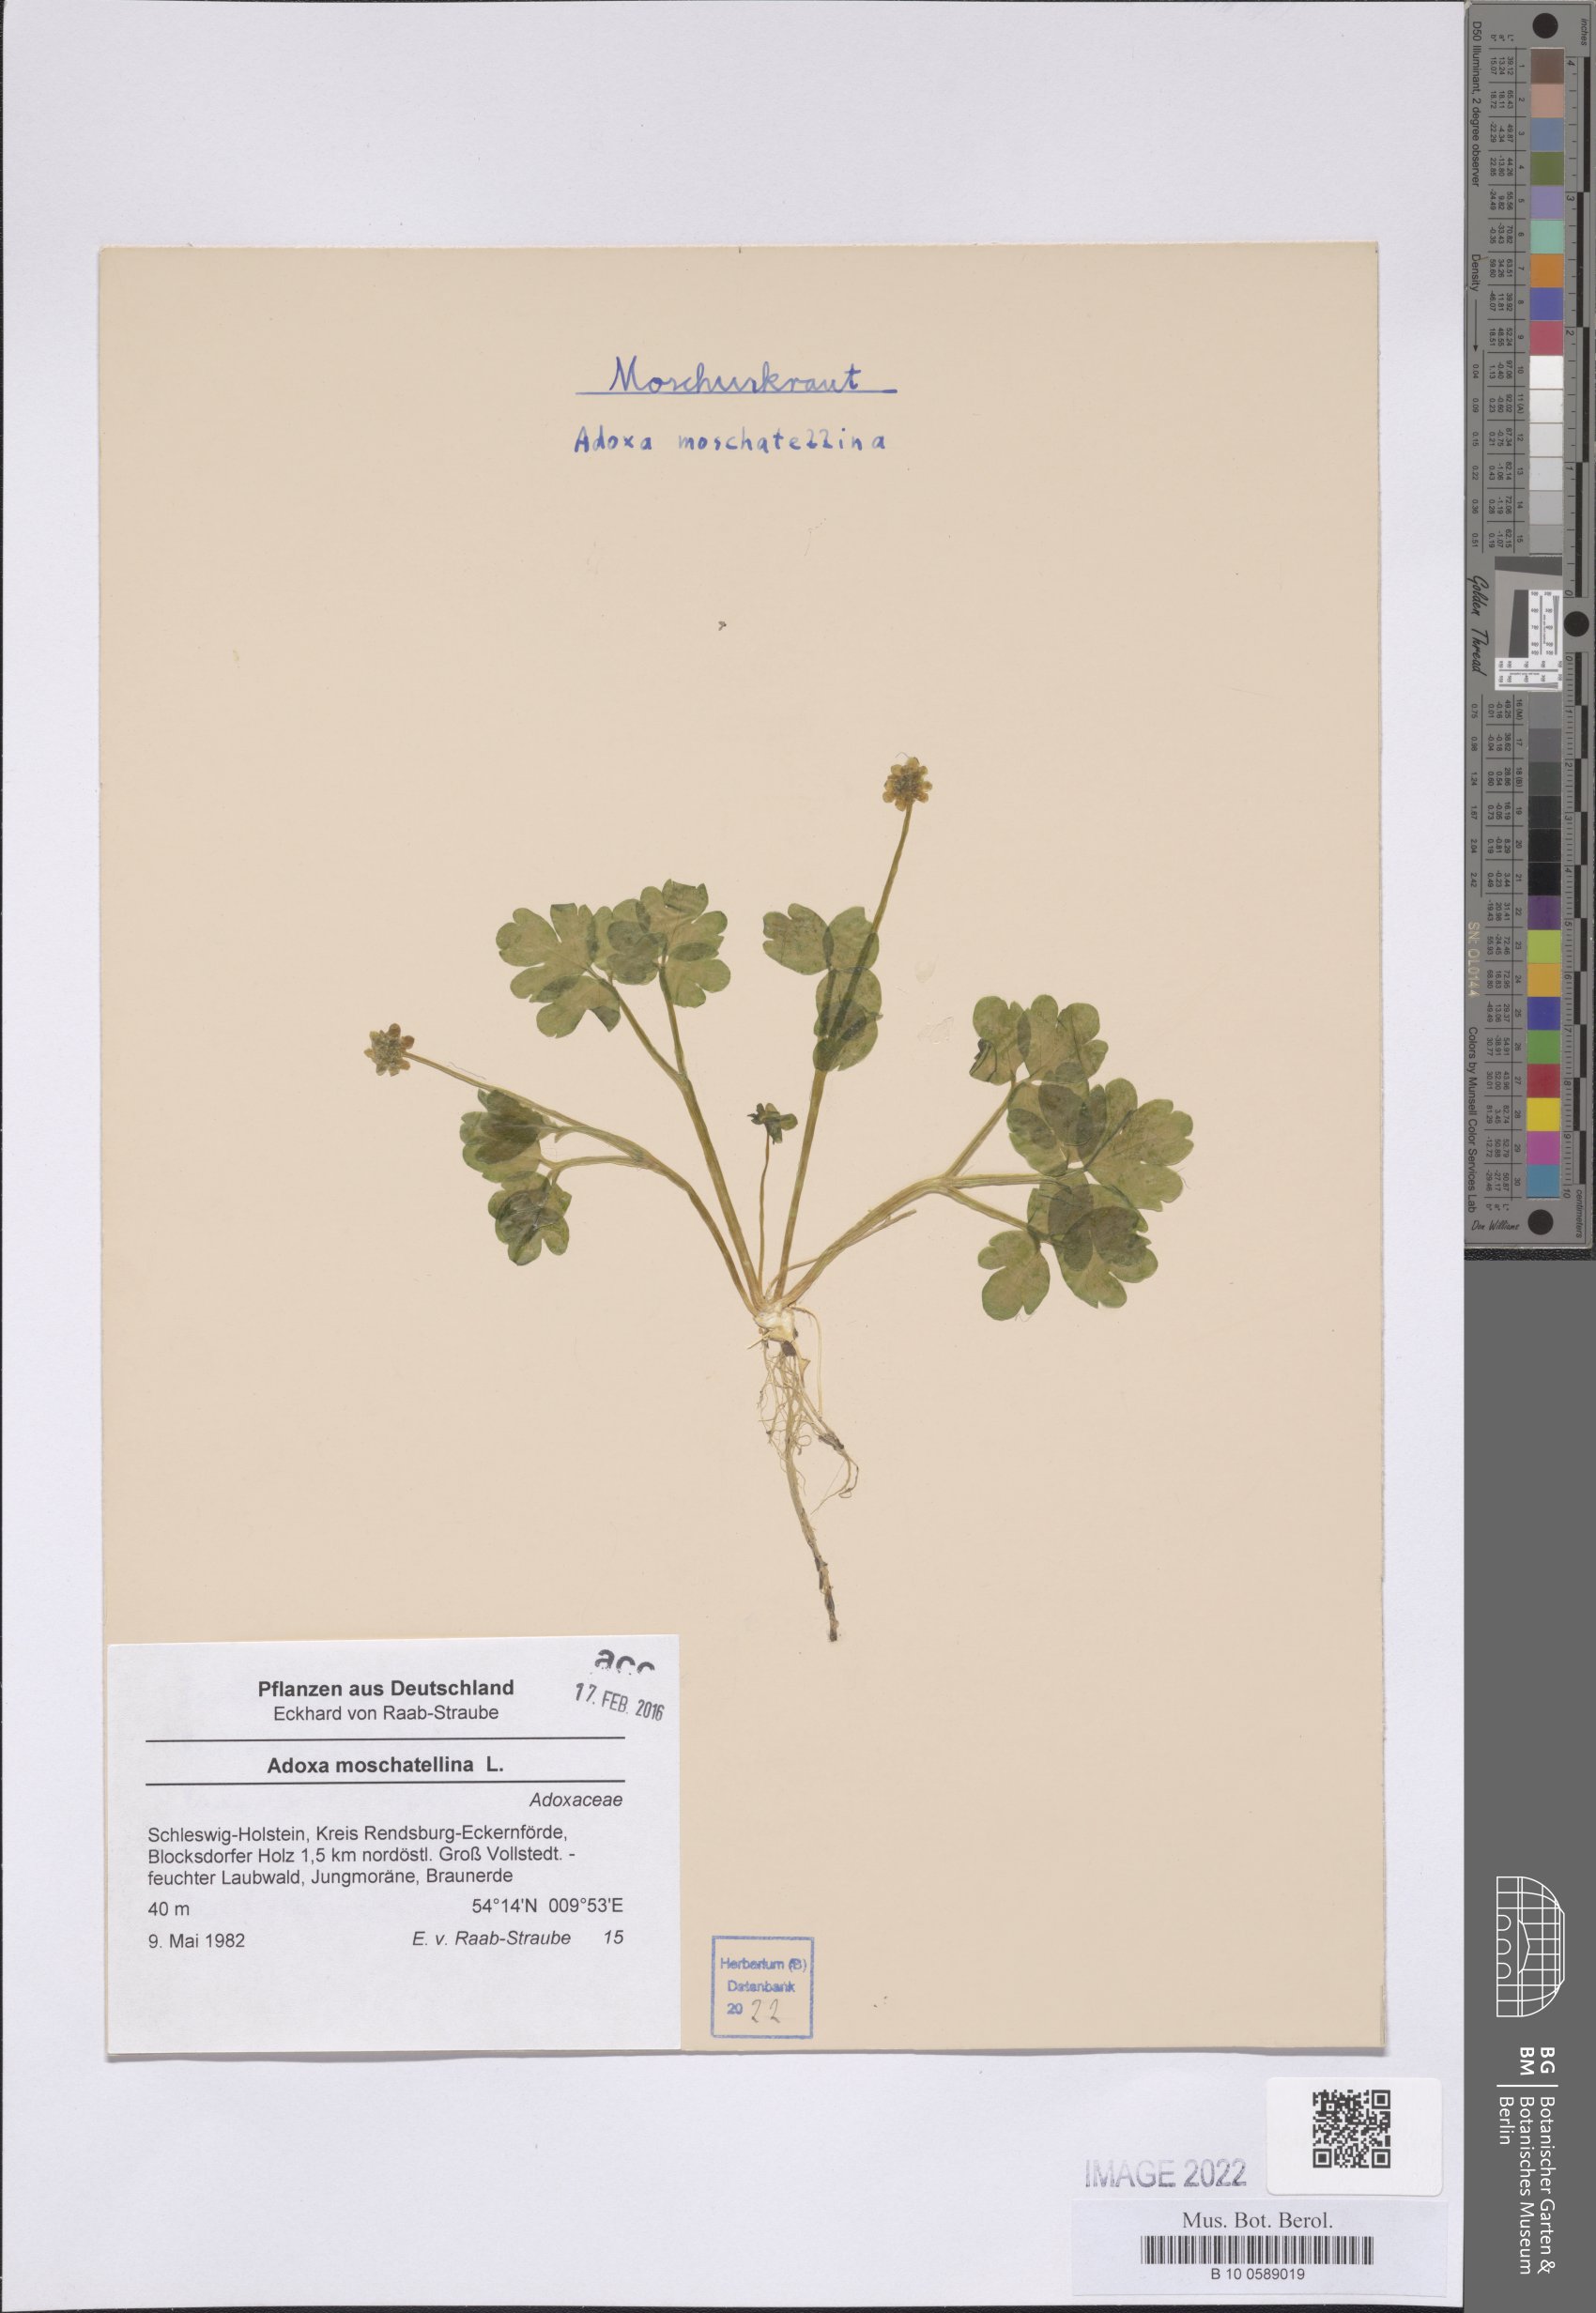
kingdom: Plantae
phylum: Tracheophyta
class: Magnoliopsida
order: Dipsacales
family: Viburnaceae
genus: Adoxa
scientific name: Adoxa moschatellina
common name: Moschatel
